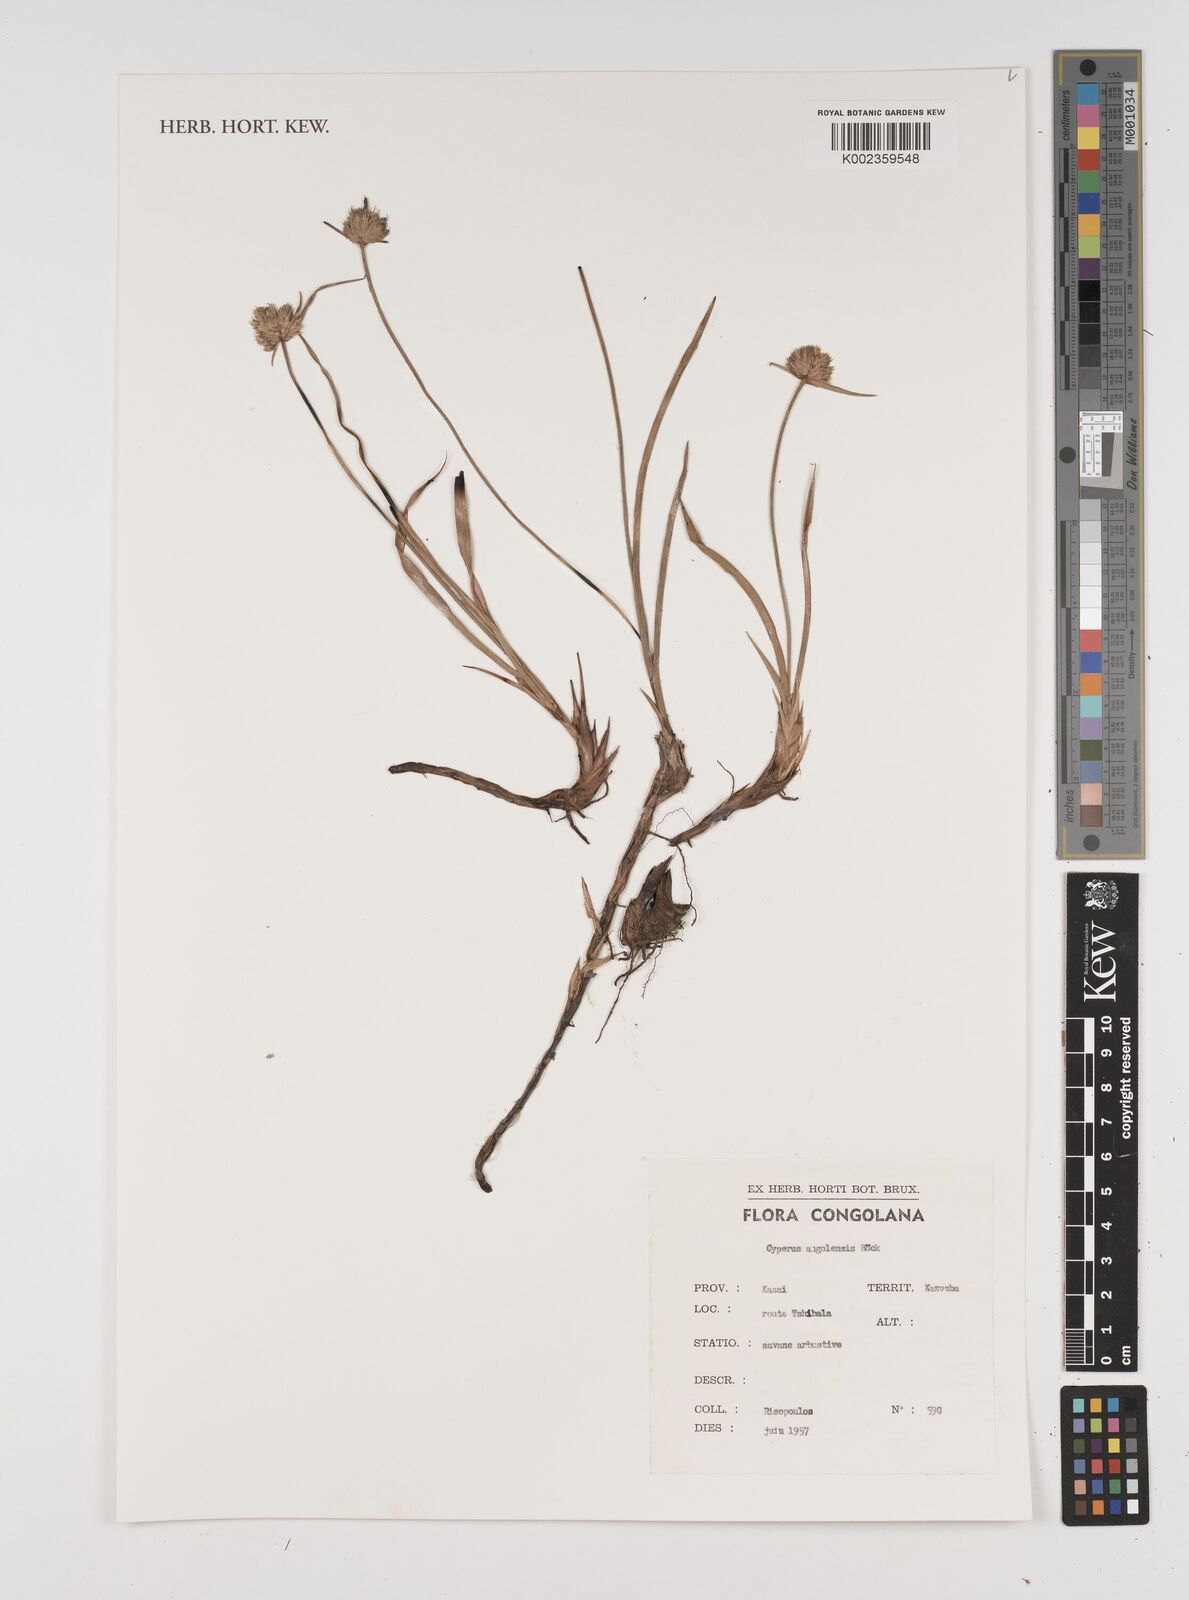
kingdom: Plantae
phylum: Tracheophyta
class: Liliopsida
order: Poales
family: Cyperaceae
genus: Cyperus
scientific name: Cyperus angolensis
